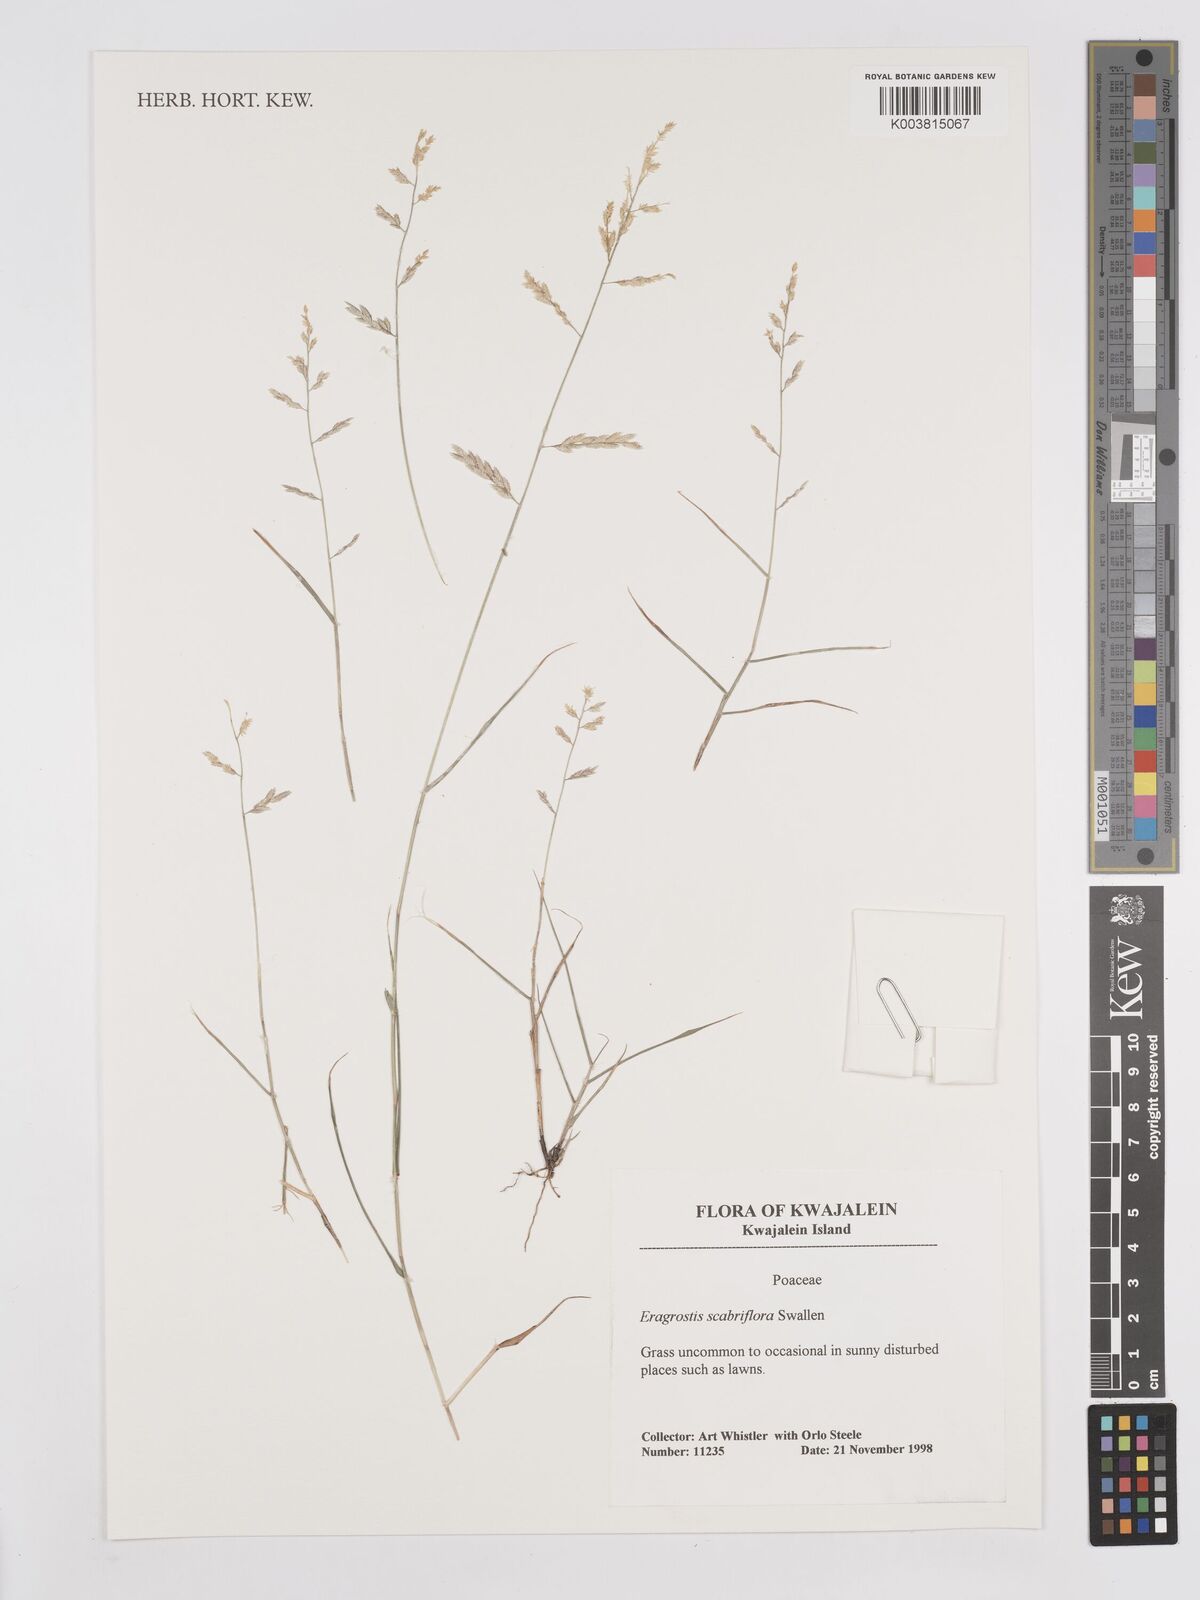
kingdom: Plantae
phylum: Tracheophyta
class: Liliopsida
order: Poales
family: Poaceae
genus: Eragrostis
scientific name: Eragrostis scabriflora
